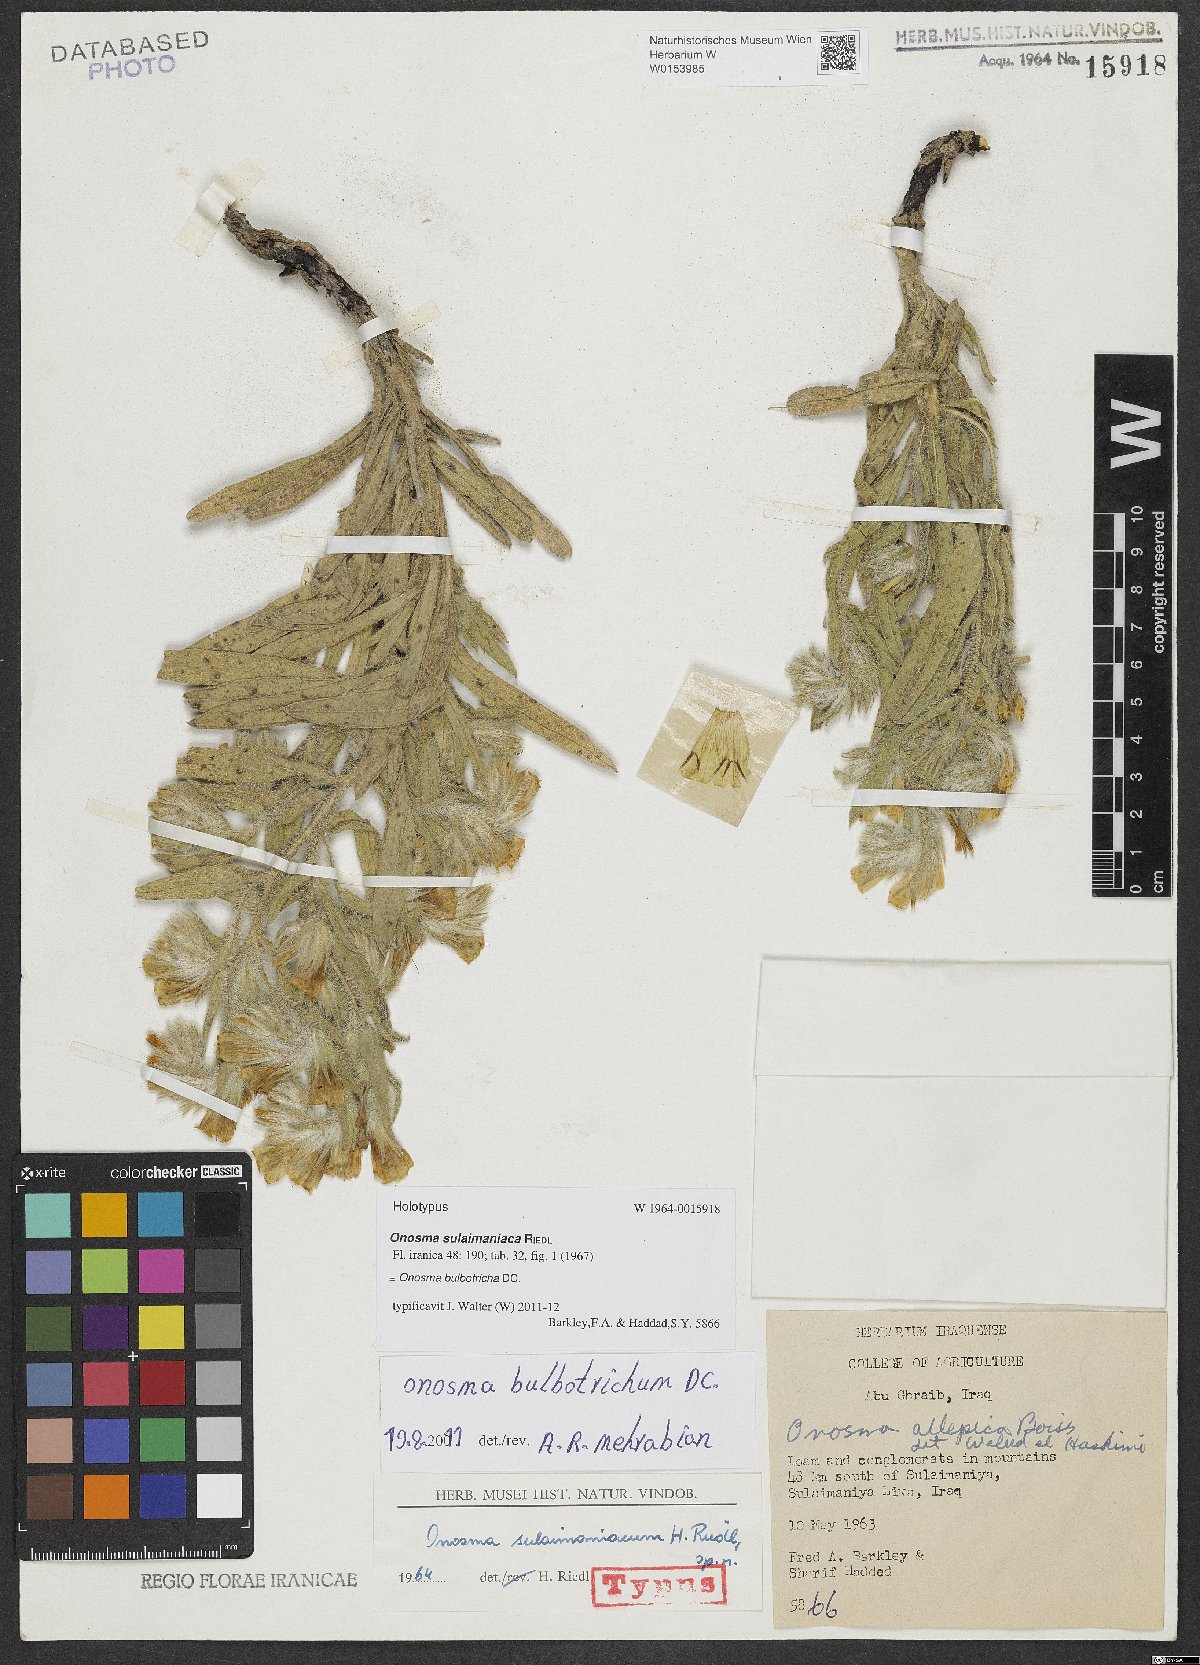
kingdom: Plantae
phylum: Tracheophyta
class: Magnoliopsida
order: Boraginales
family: Boraginaceae
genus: Onosma
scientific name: Onosma sulaimaniaca
